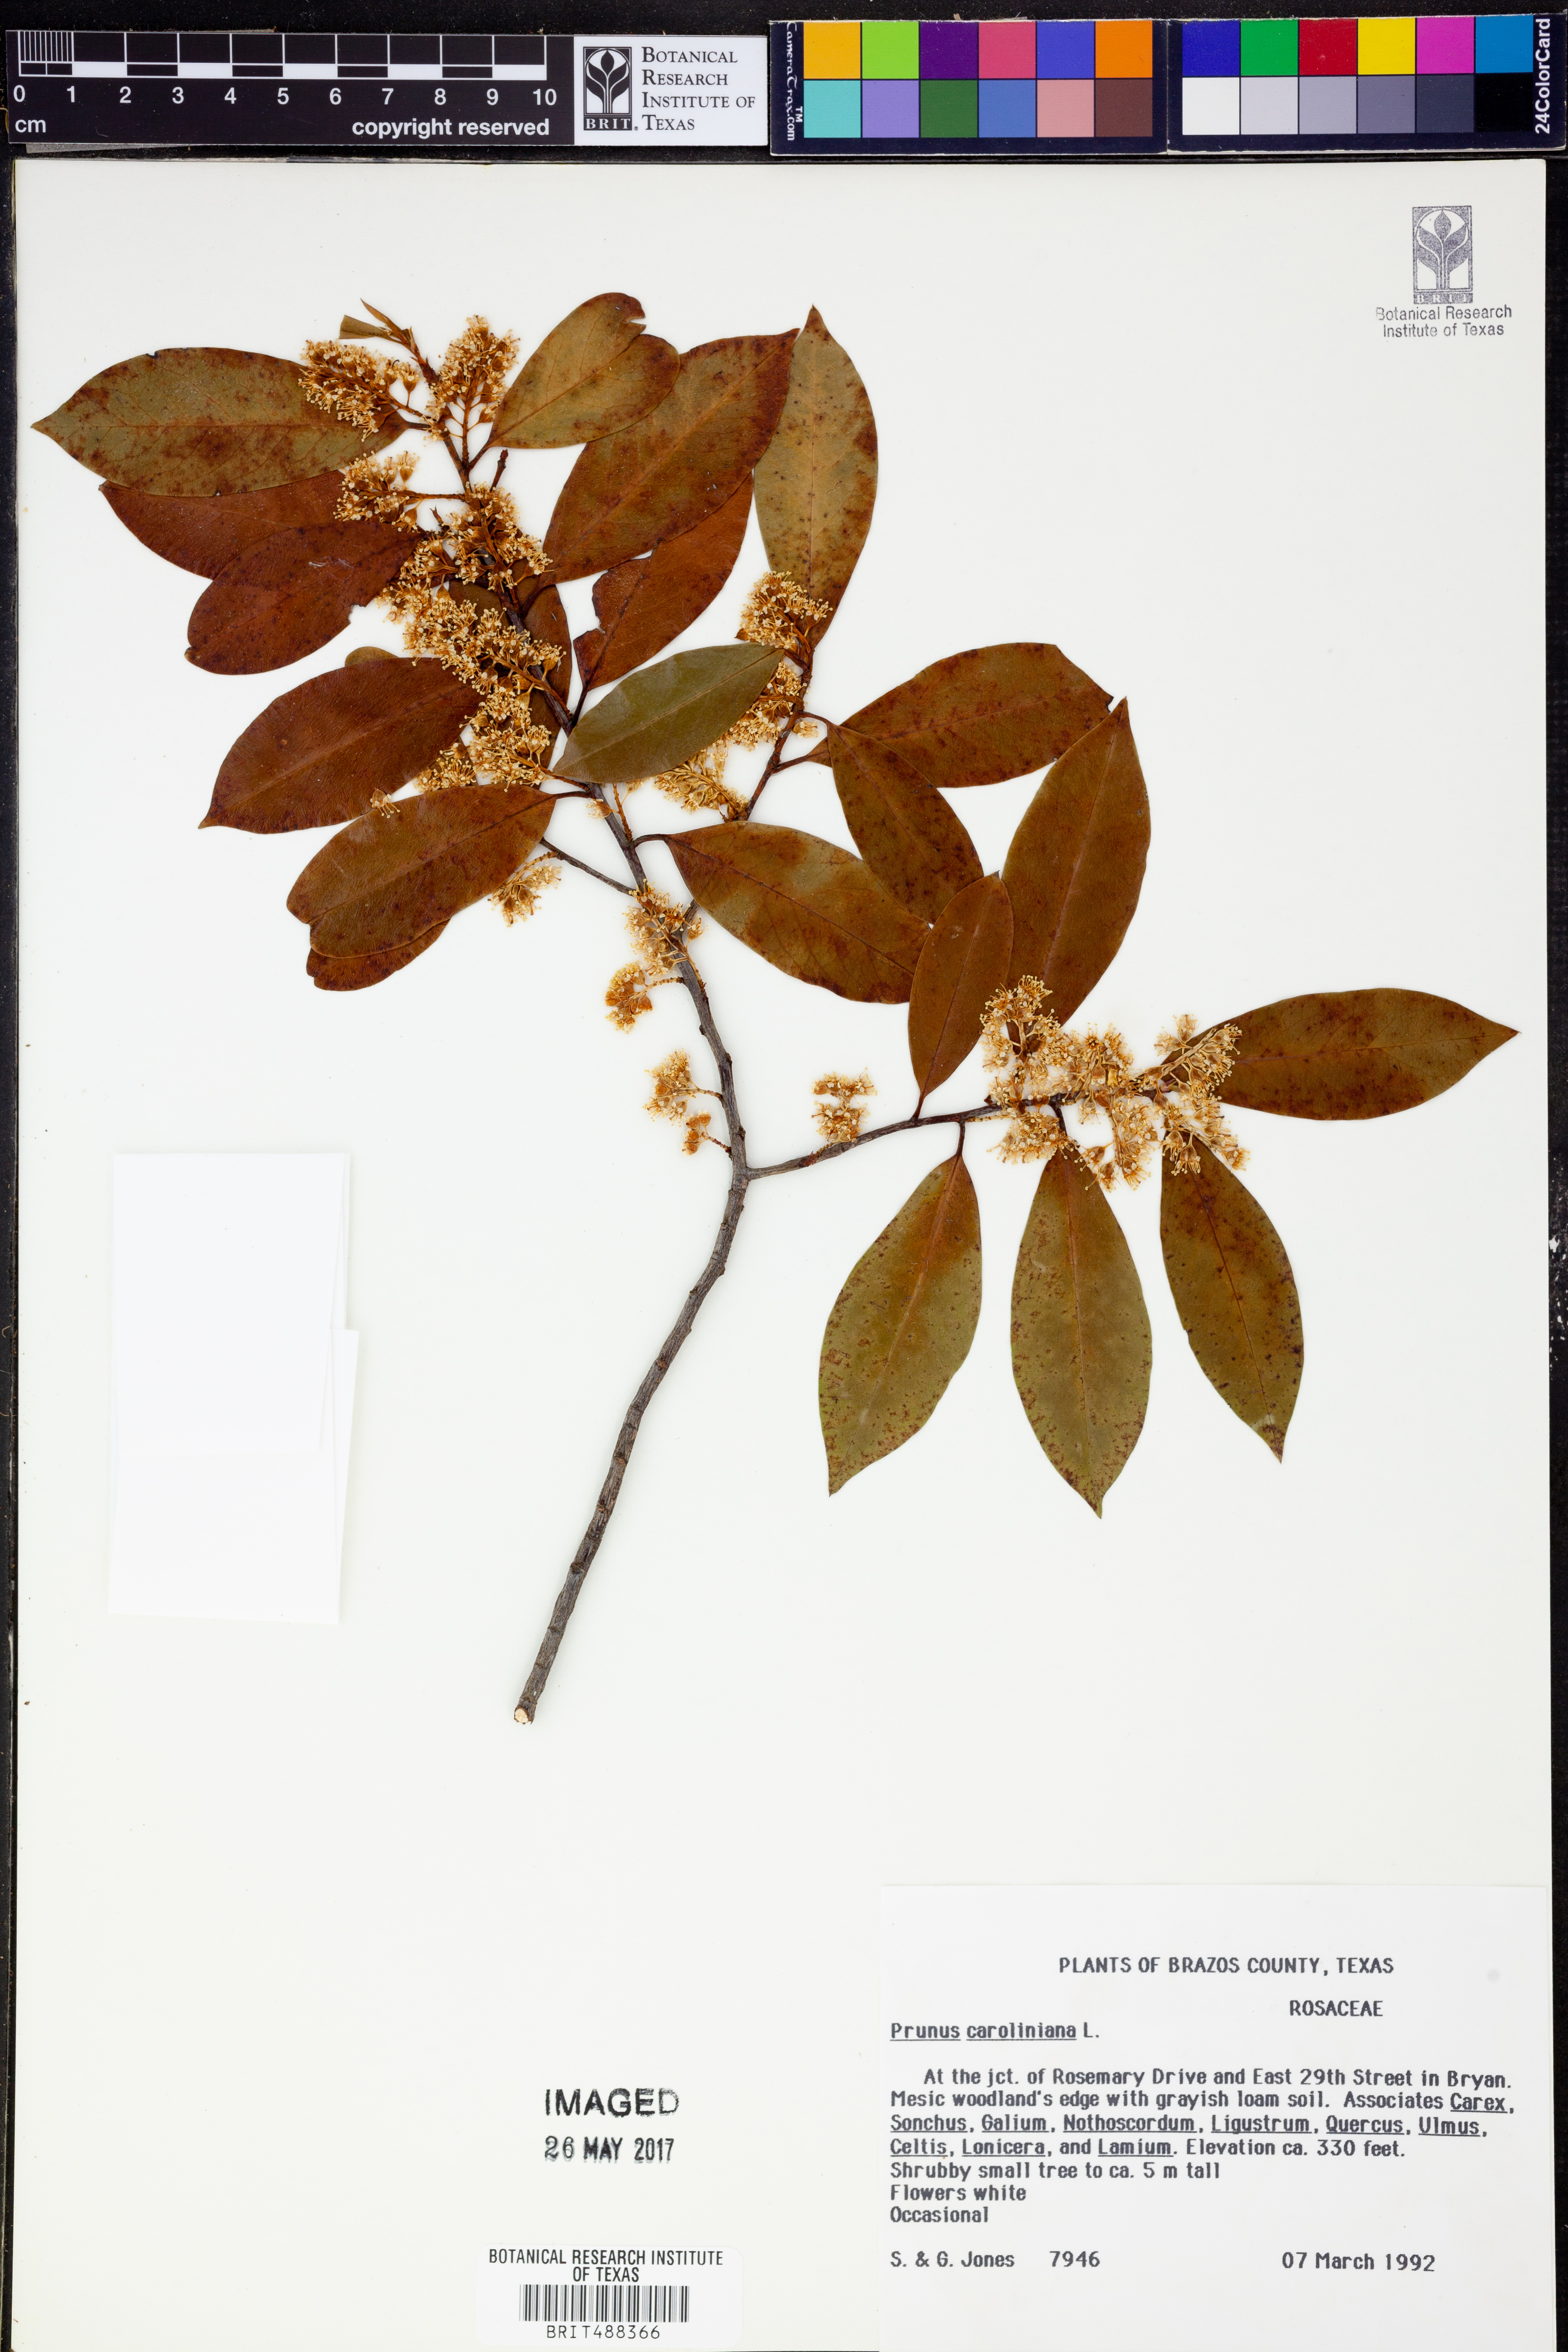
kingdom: Plantae
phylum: Tracheophyta
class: Magnoliopsida
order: Rosales
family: Rosaceae
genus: Prunus
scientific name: Prunus caroliniana
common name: Carolina laurel cherry
